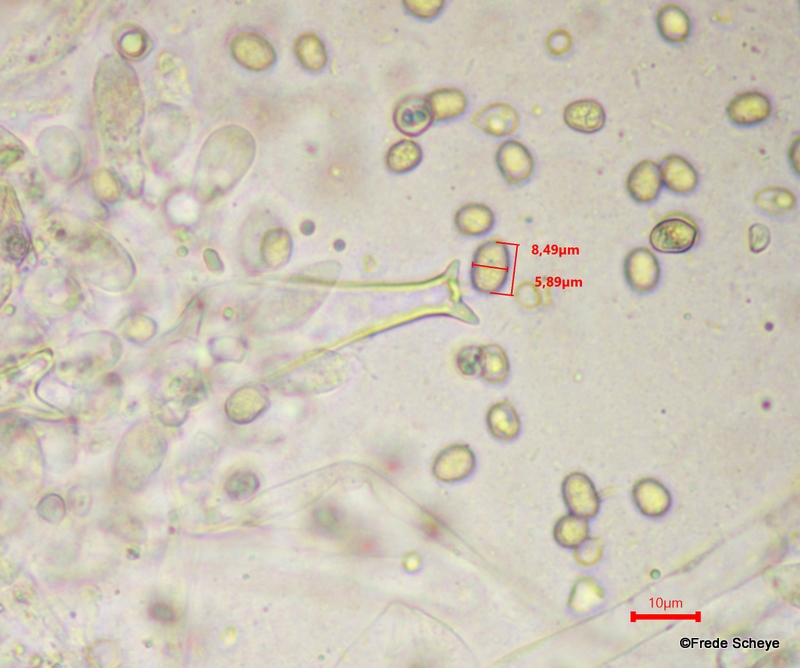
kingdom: Fungi
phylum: Basidiomycota
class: Agaricomycetes
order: Agaricales
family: Pluteaceae
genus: Pluteus
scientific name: Pluteus cervinus
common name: sodfarvet skærmhat
